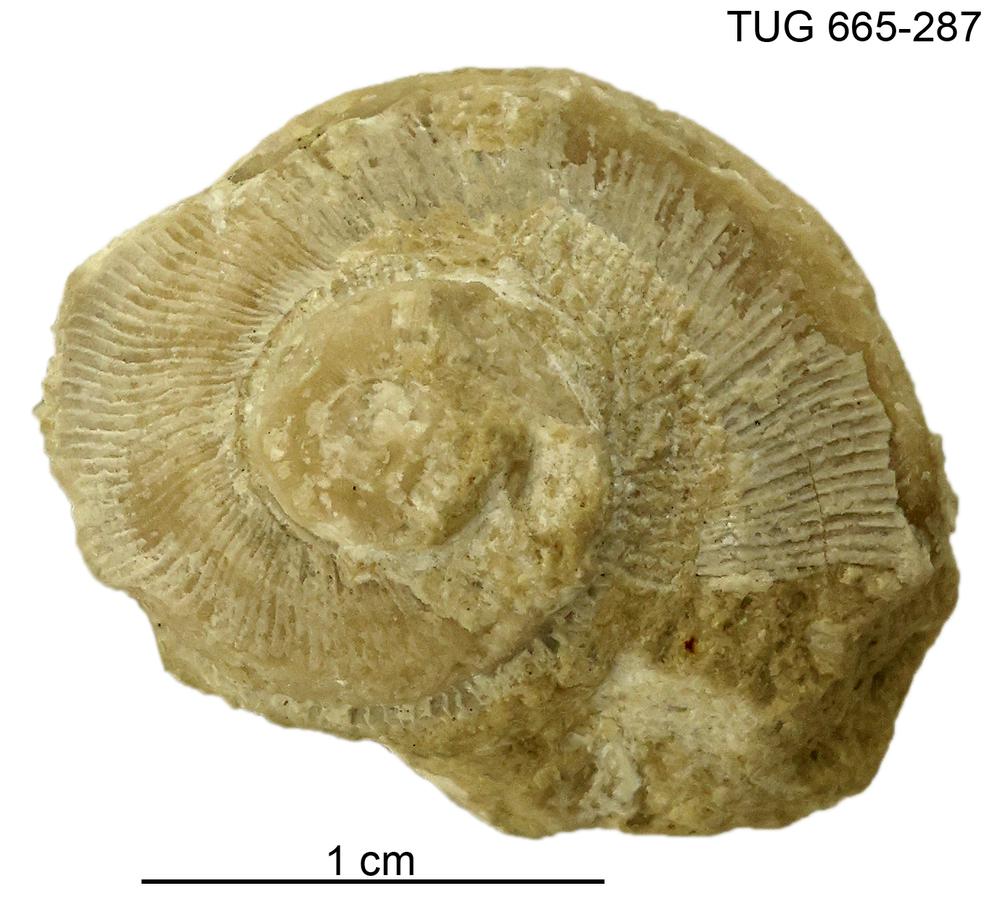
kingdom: Animalia
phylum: Mollusca
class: Gastropoda
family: Trochonematidae
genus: Trochonema
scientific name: Trochonema panderi
